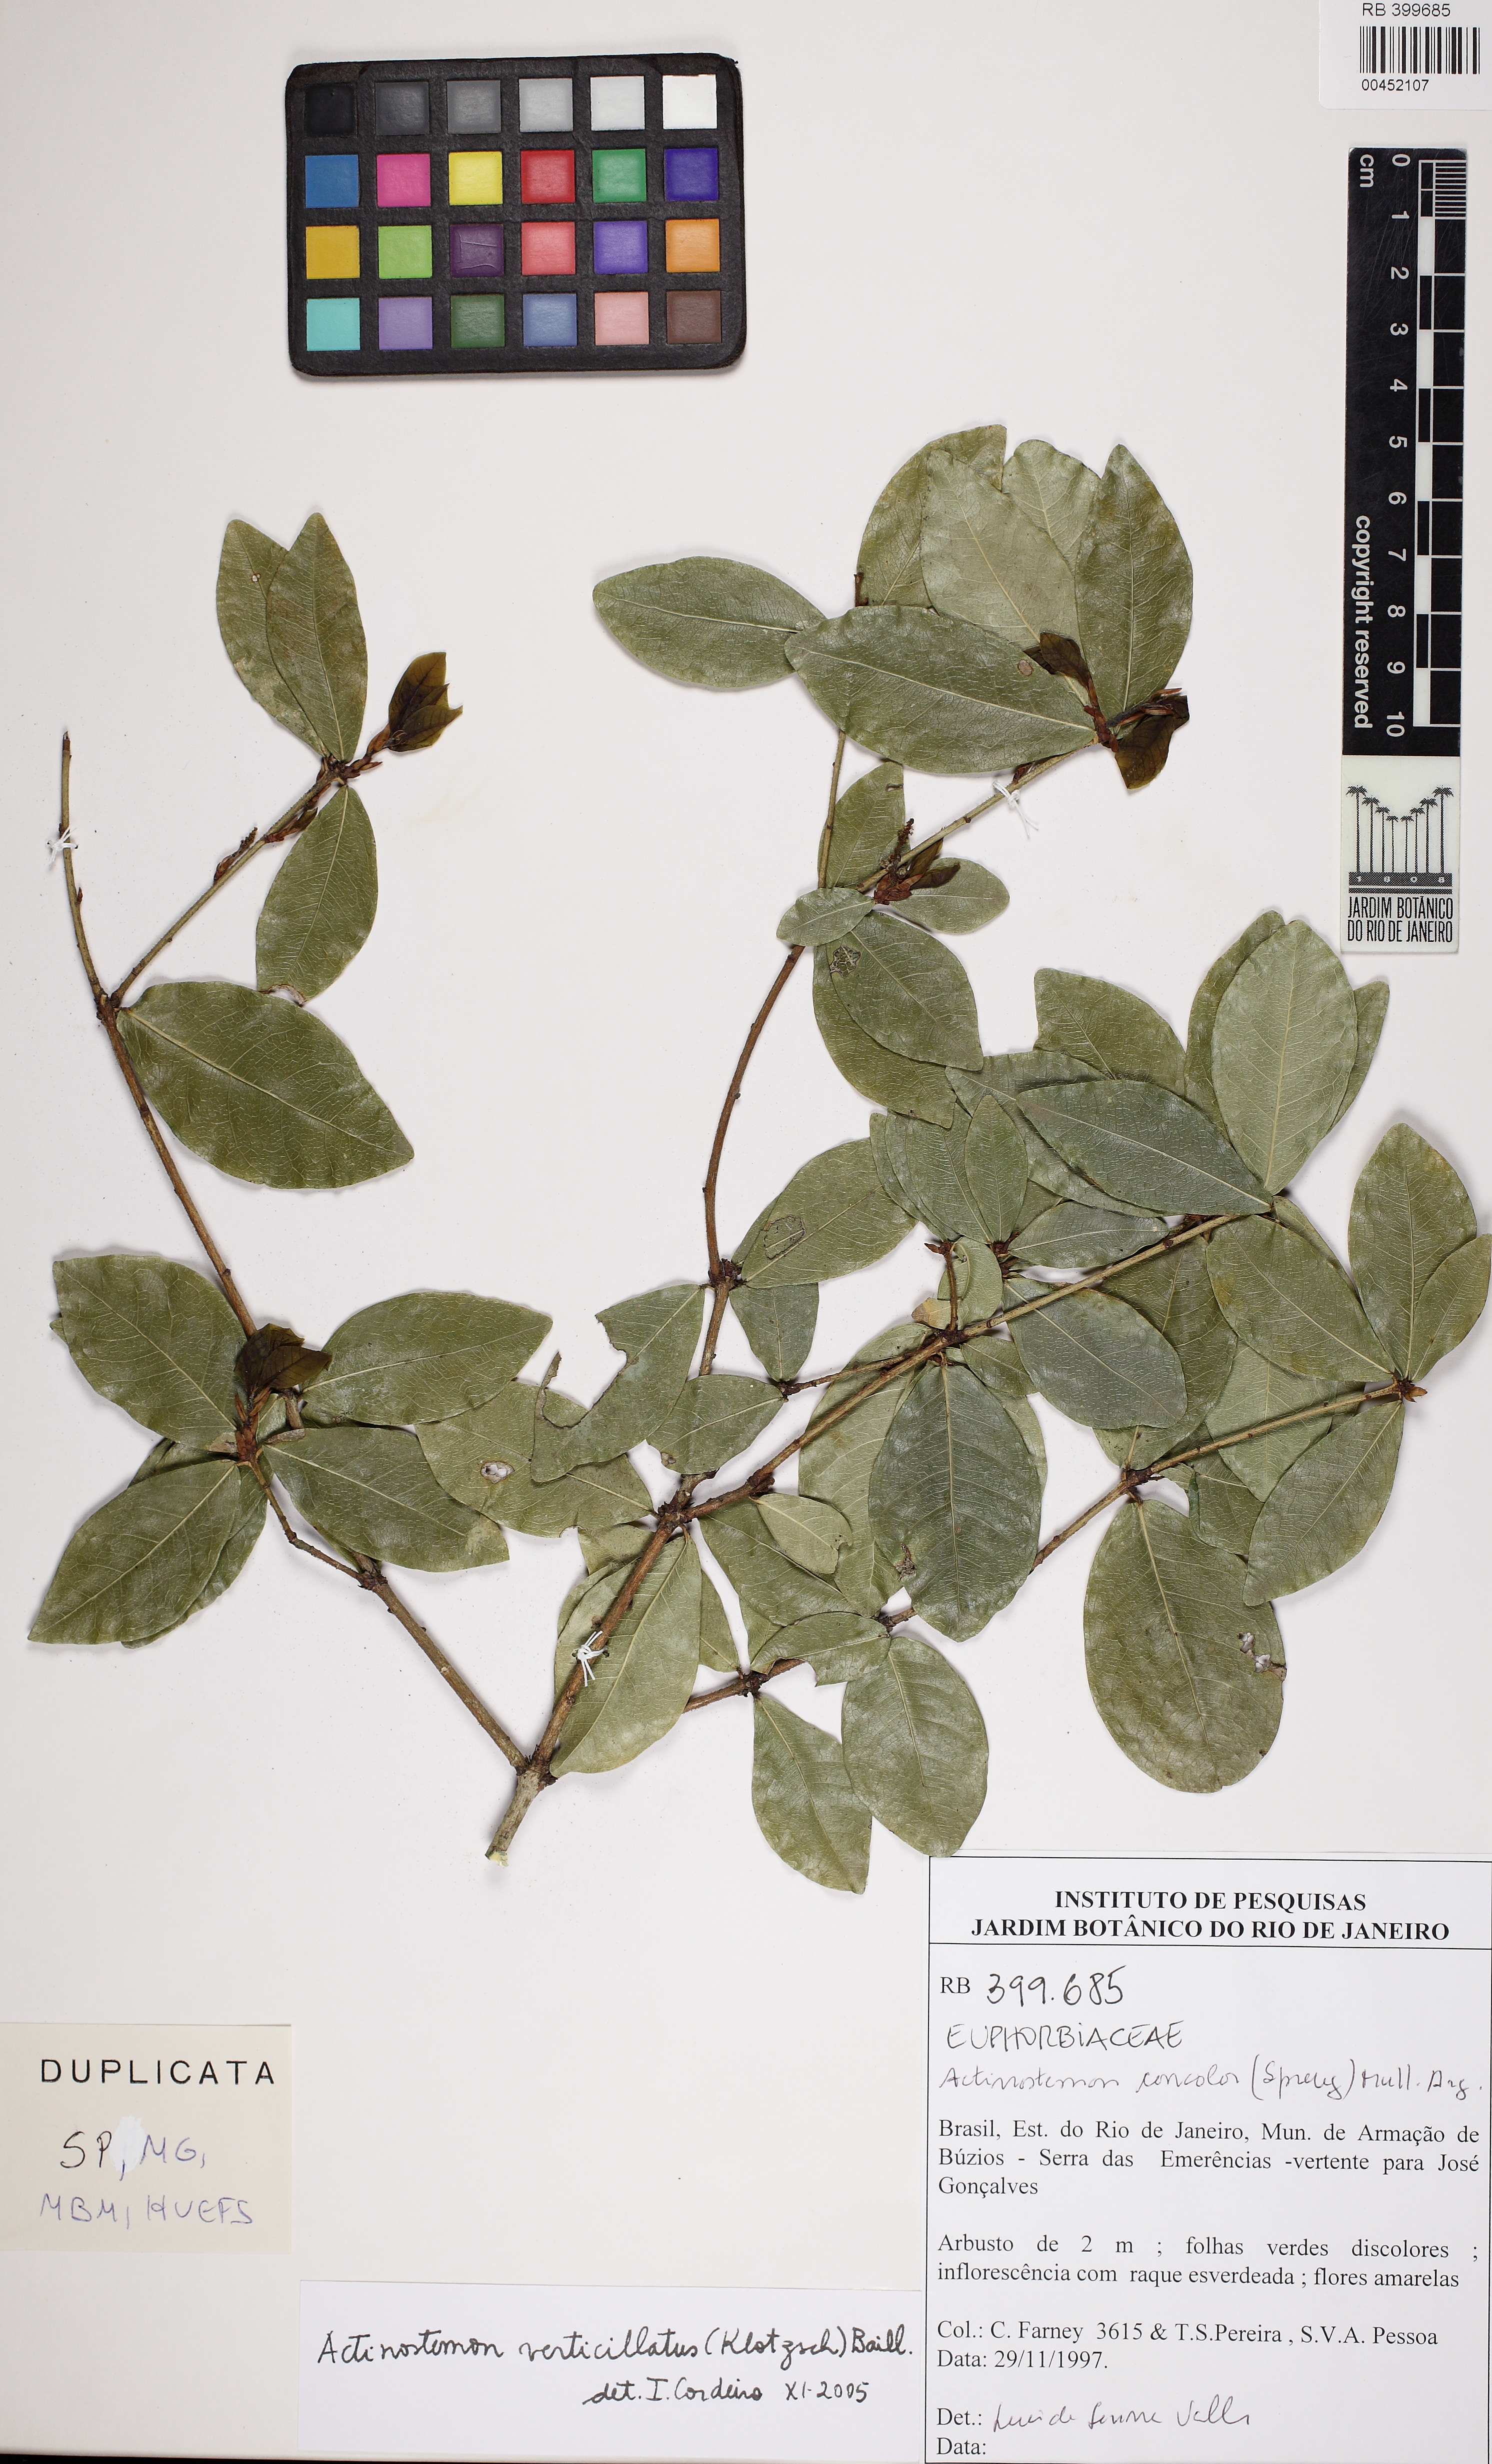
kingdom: Plantae
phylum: Tracheophyta
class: Magnoliopsida
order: Malpighiales
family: Euphorbiaceae
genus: Actinostemon
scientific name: Actinostemon verticillatus
